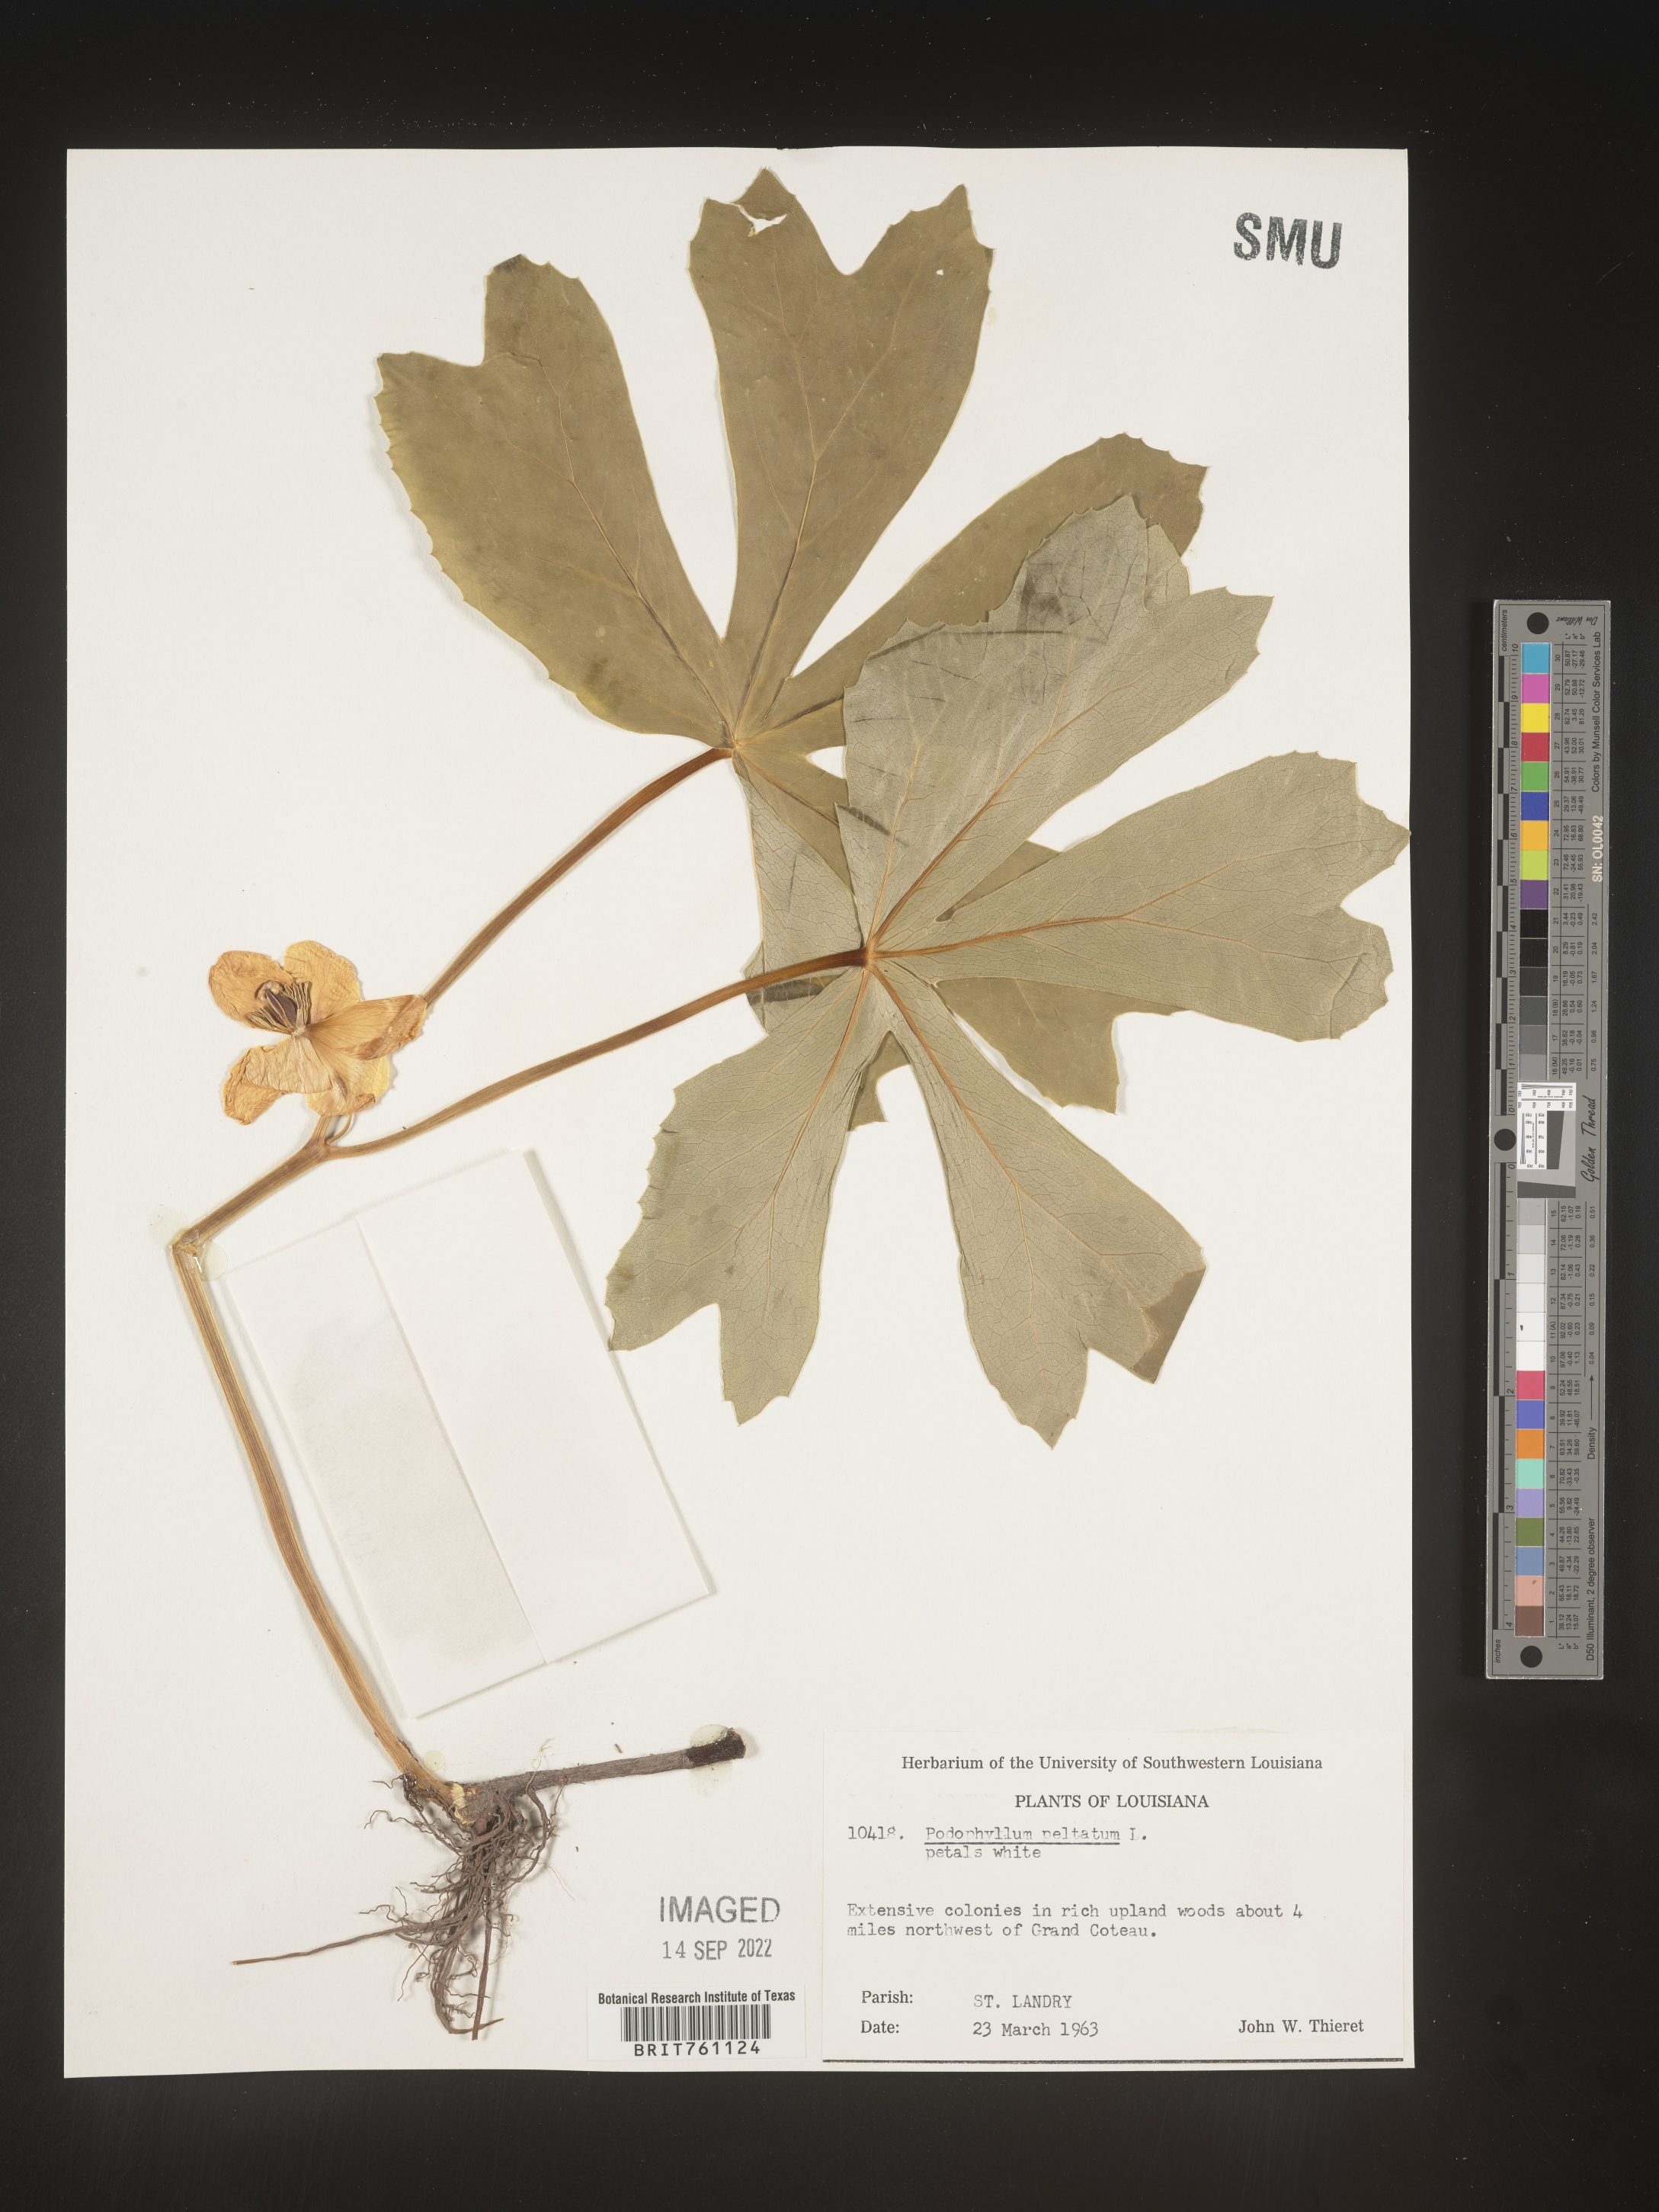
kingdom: Plantae
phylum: Tracheophyta
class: Magnoliopsida
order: Ranunculales
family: Berberidaceae
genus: Podophyllum
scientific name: Podophyllum peltatum
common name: Wild mandrake
